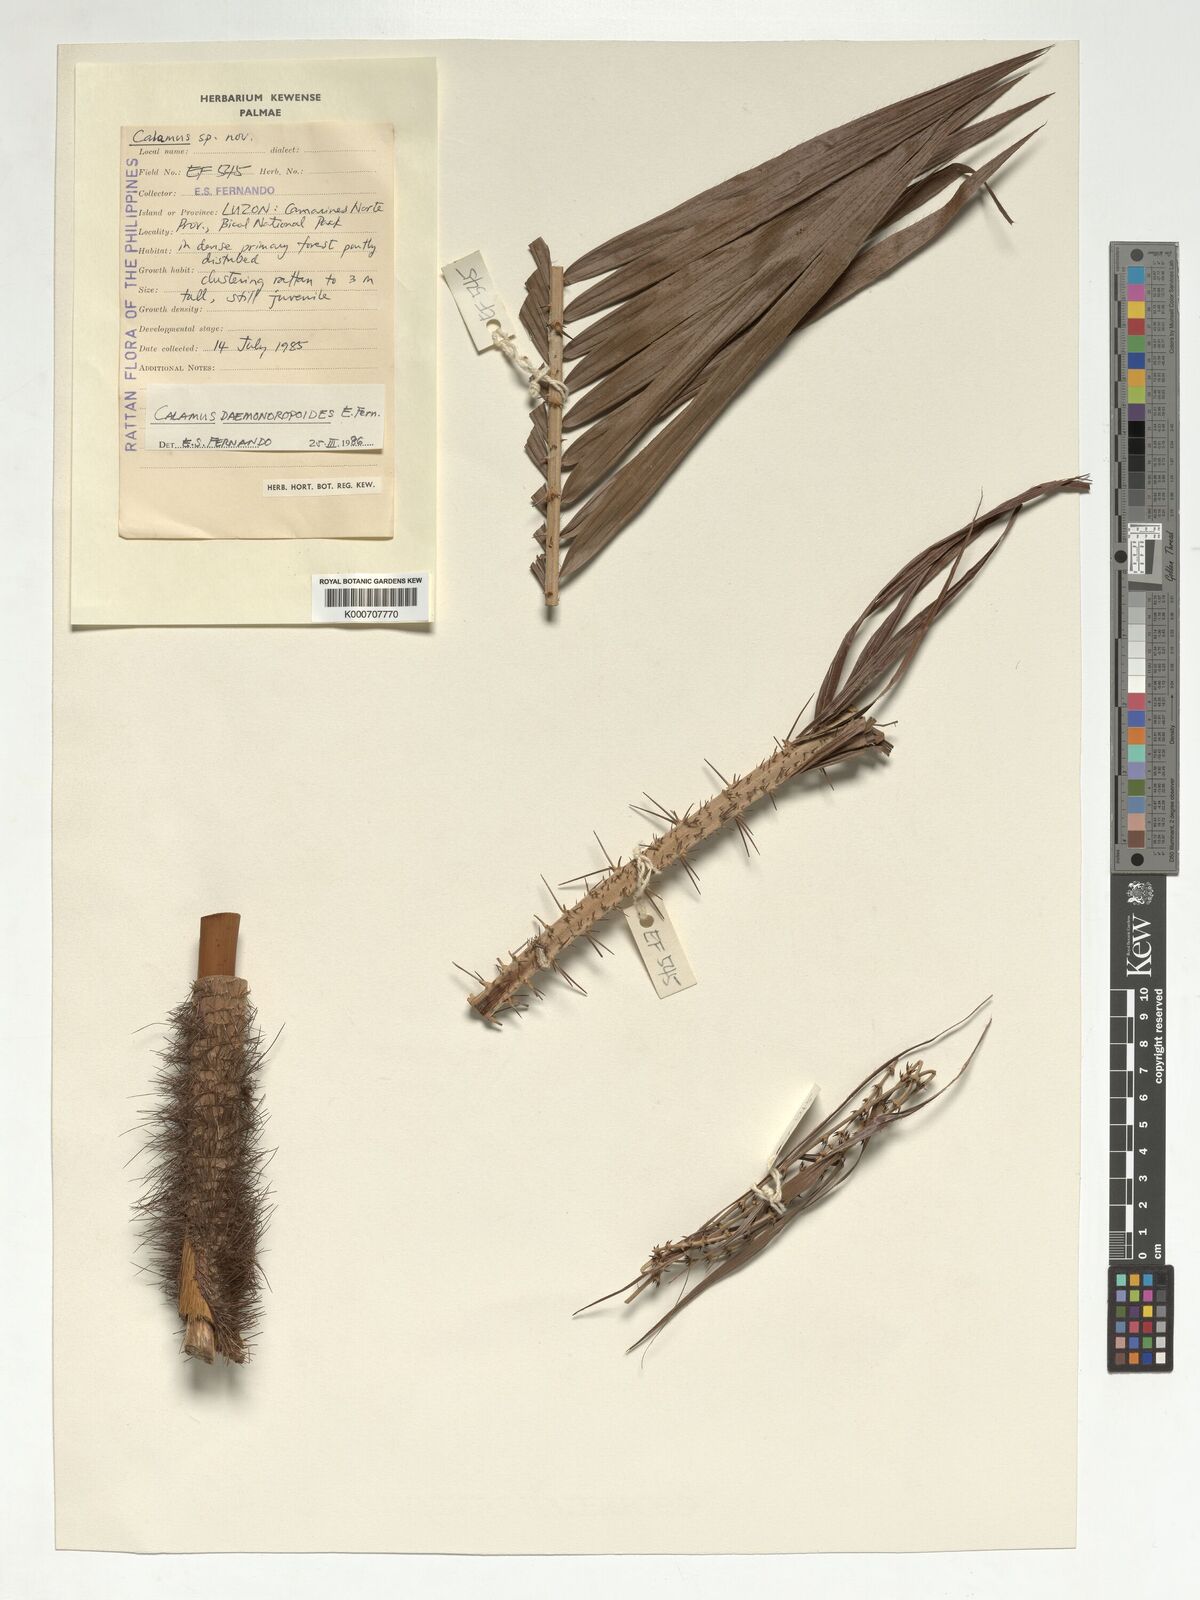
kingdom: Plantae
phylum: Tracheophyta
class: Liliopsida
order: Arecales
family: Arecaceae
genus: Calamus
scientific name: Calamus erinaceus
